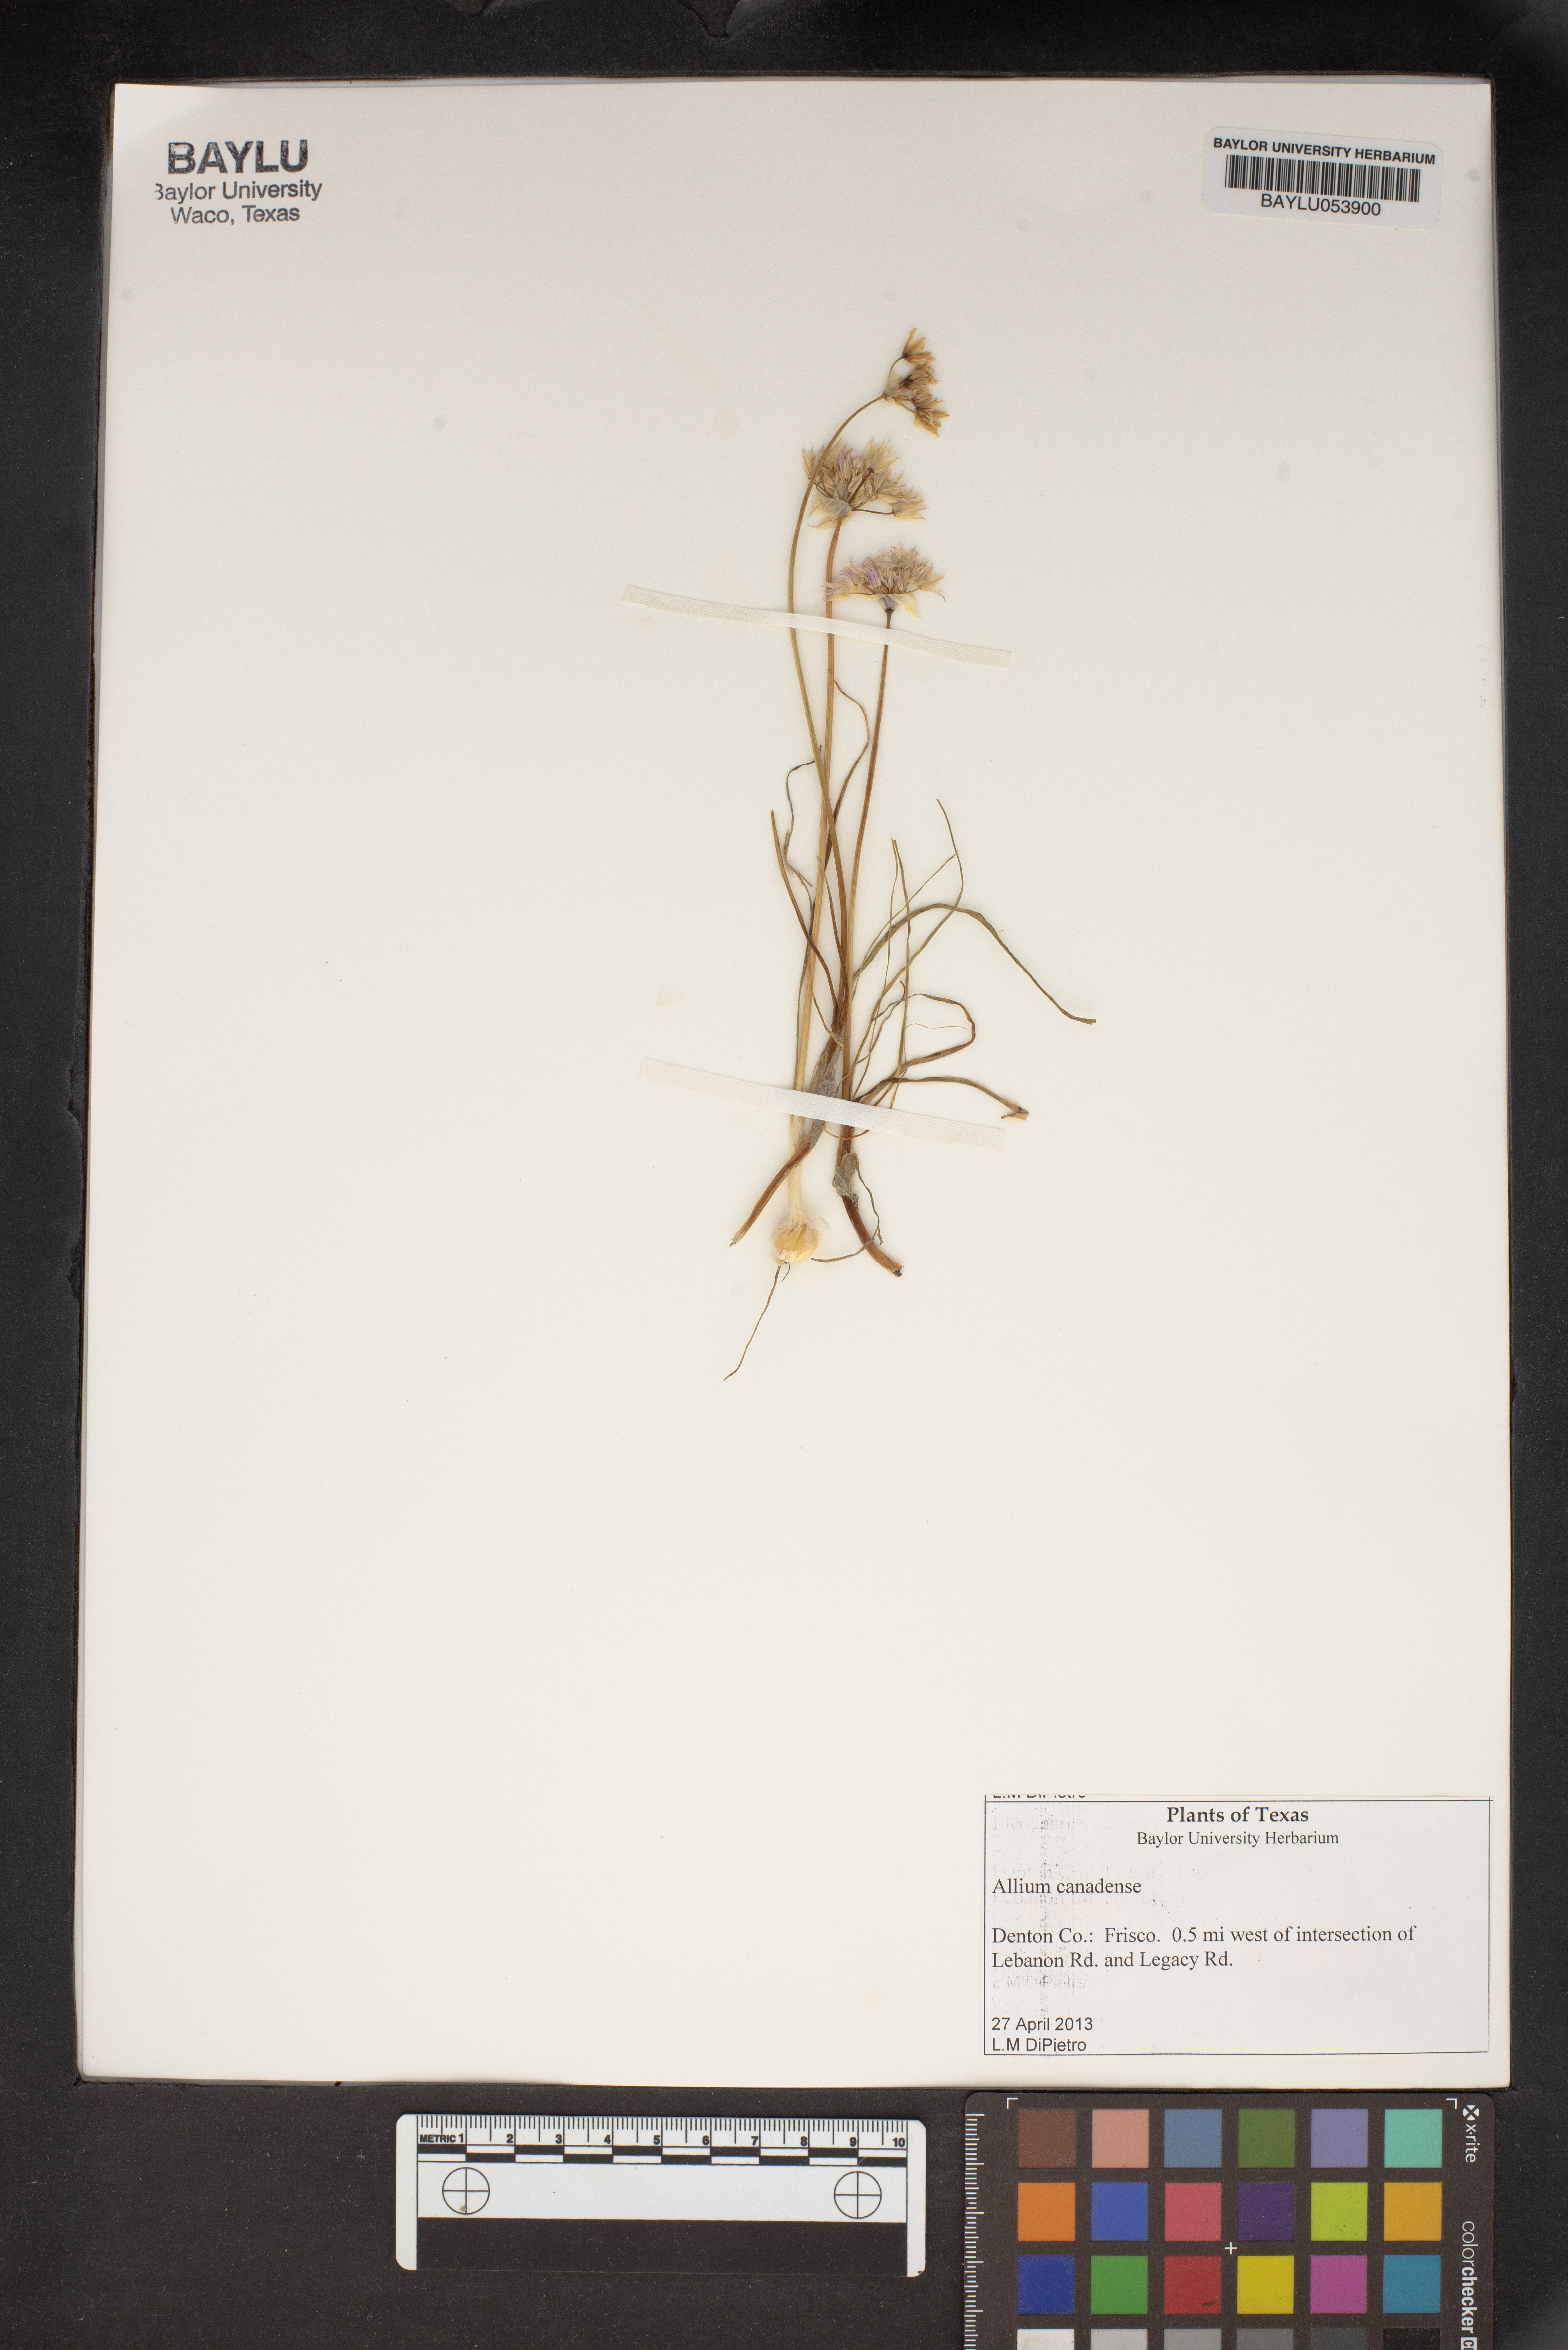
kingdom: Plantae
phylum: Tracheophyta
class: Liliopsida
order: Asparagales
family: Amaryllidaceae
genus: Allium
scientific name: Allium canadense
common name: Meadow garlic
